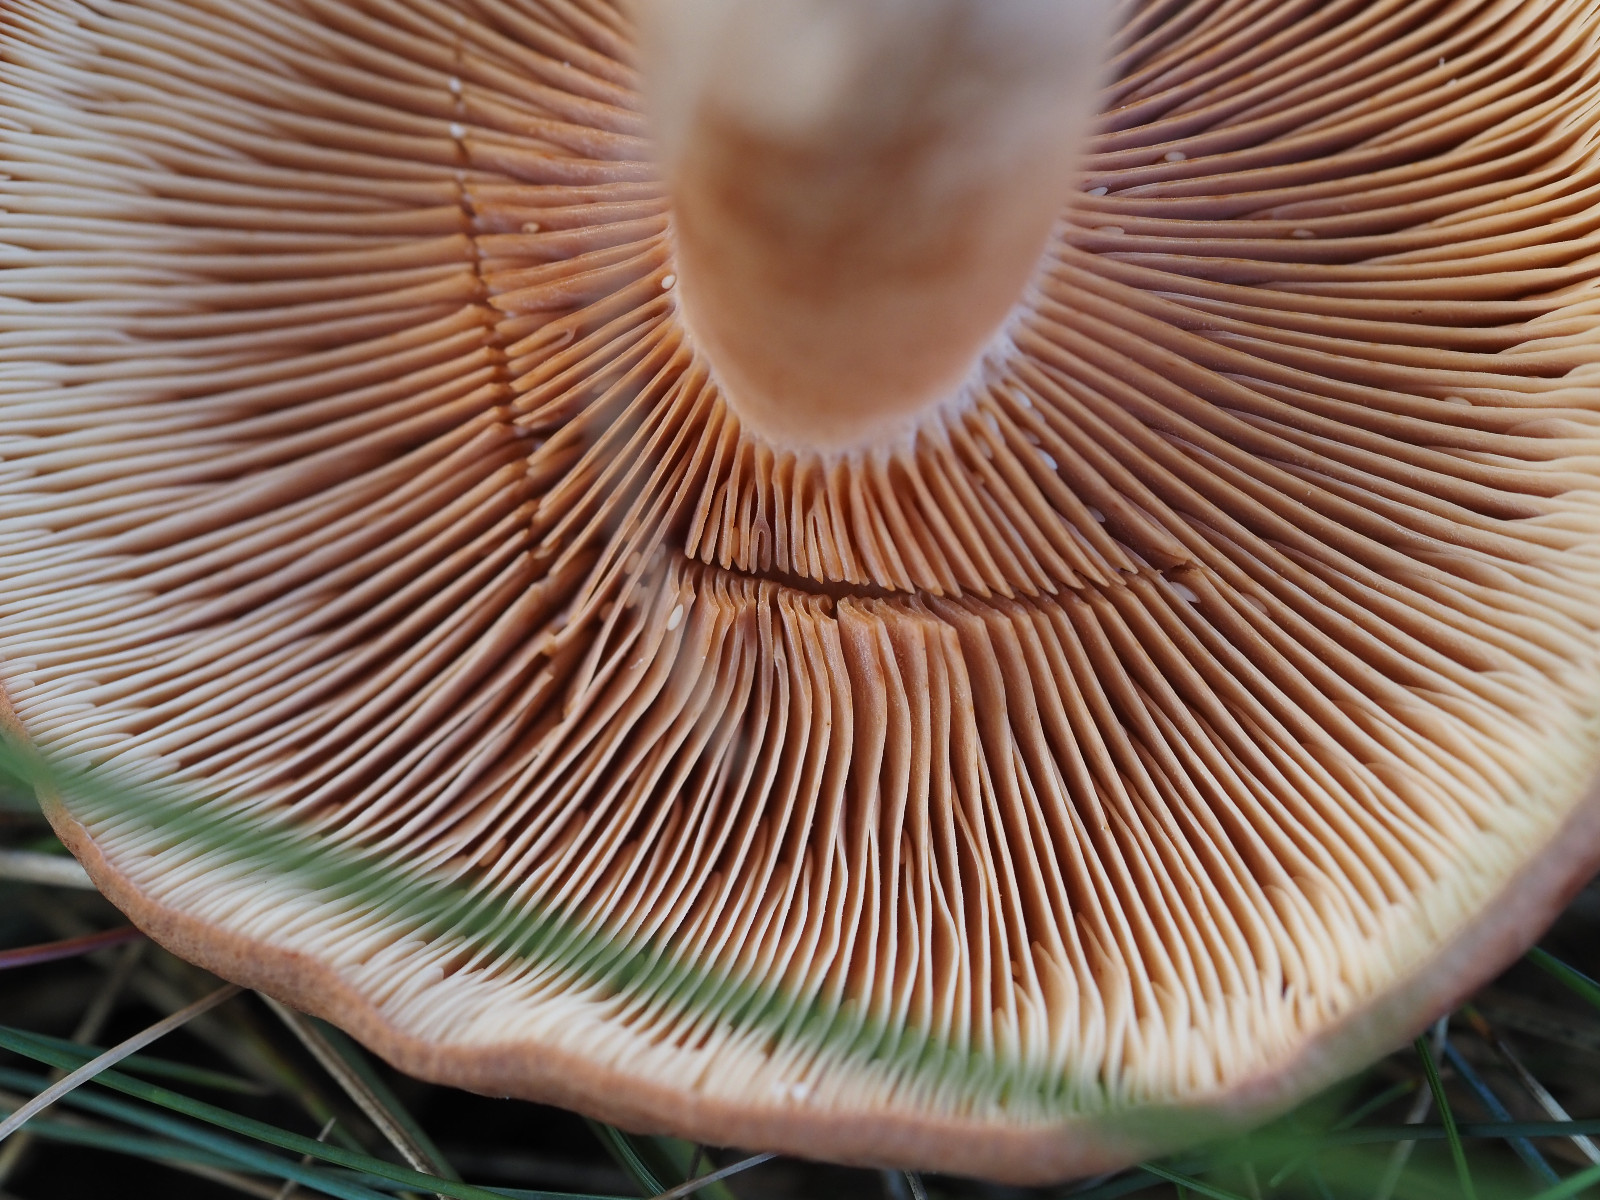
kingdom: Fungi
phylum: Basidiomycota
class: Agaricomycetes
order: Russulales
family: Russulaceae
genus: Lactarius
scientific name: Lactarius rufus
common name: rødbrun mælkehat
